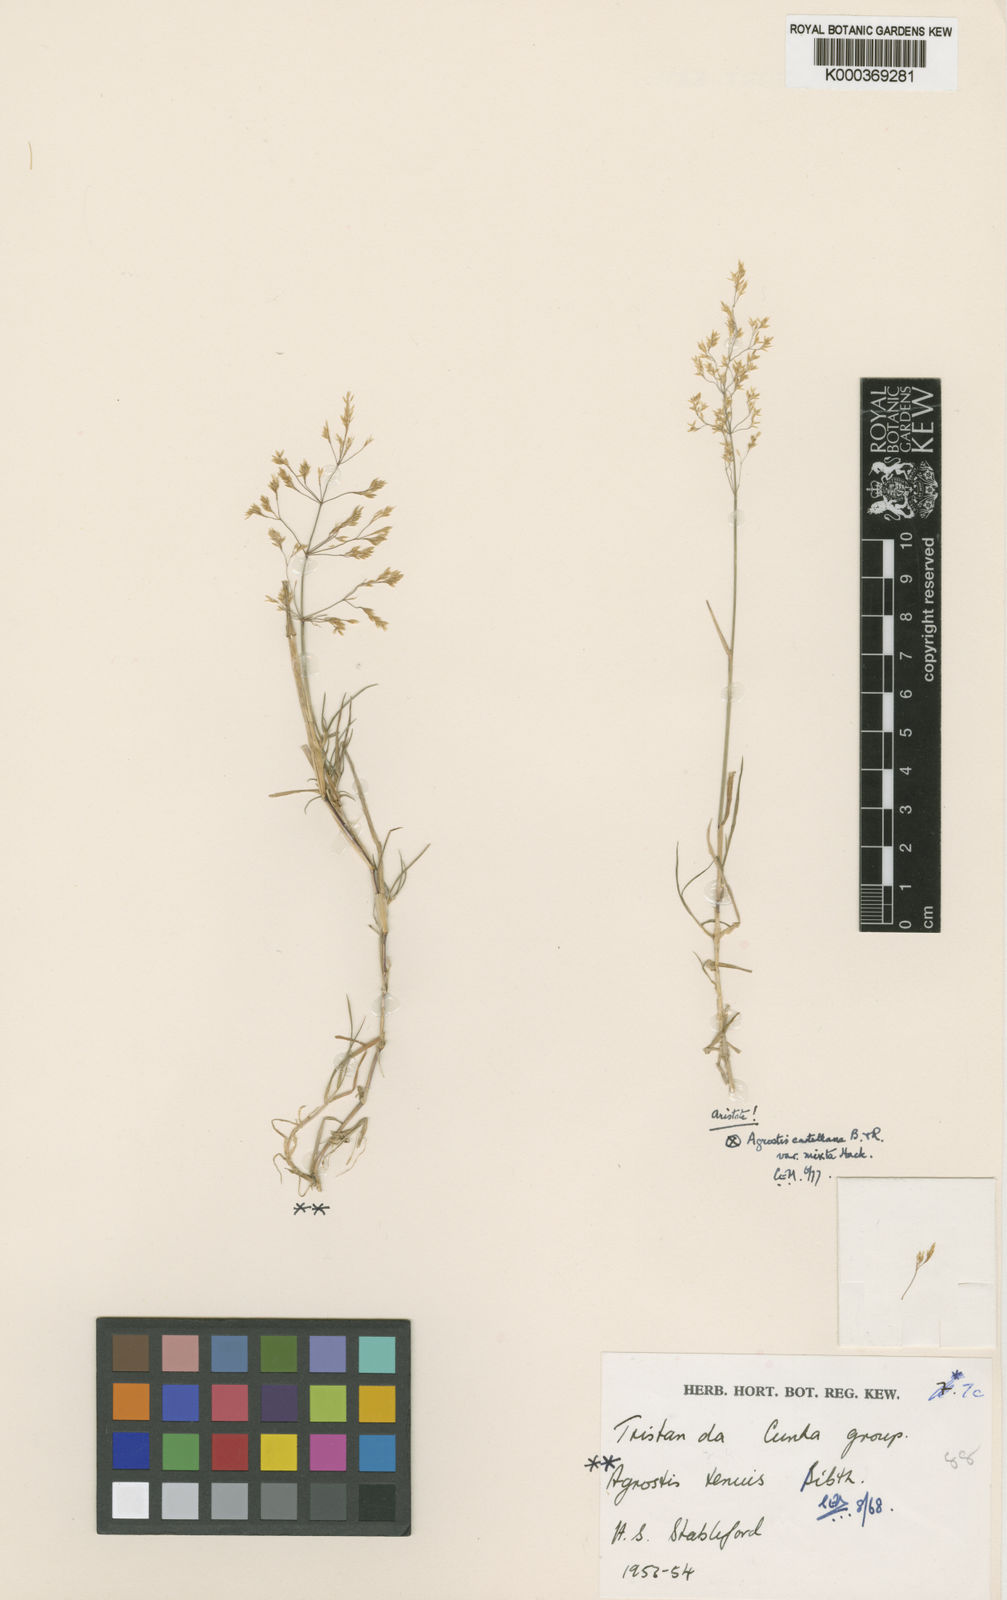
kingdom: Plantae
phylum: Tracheophyta
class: Liliopsida
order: Poales
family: Poaceae
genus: Agrostis
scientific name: Agrostis capillaris
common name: Colonial bentgrass
